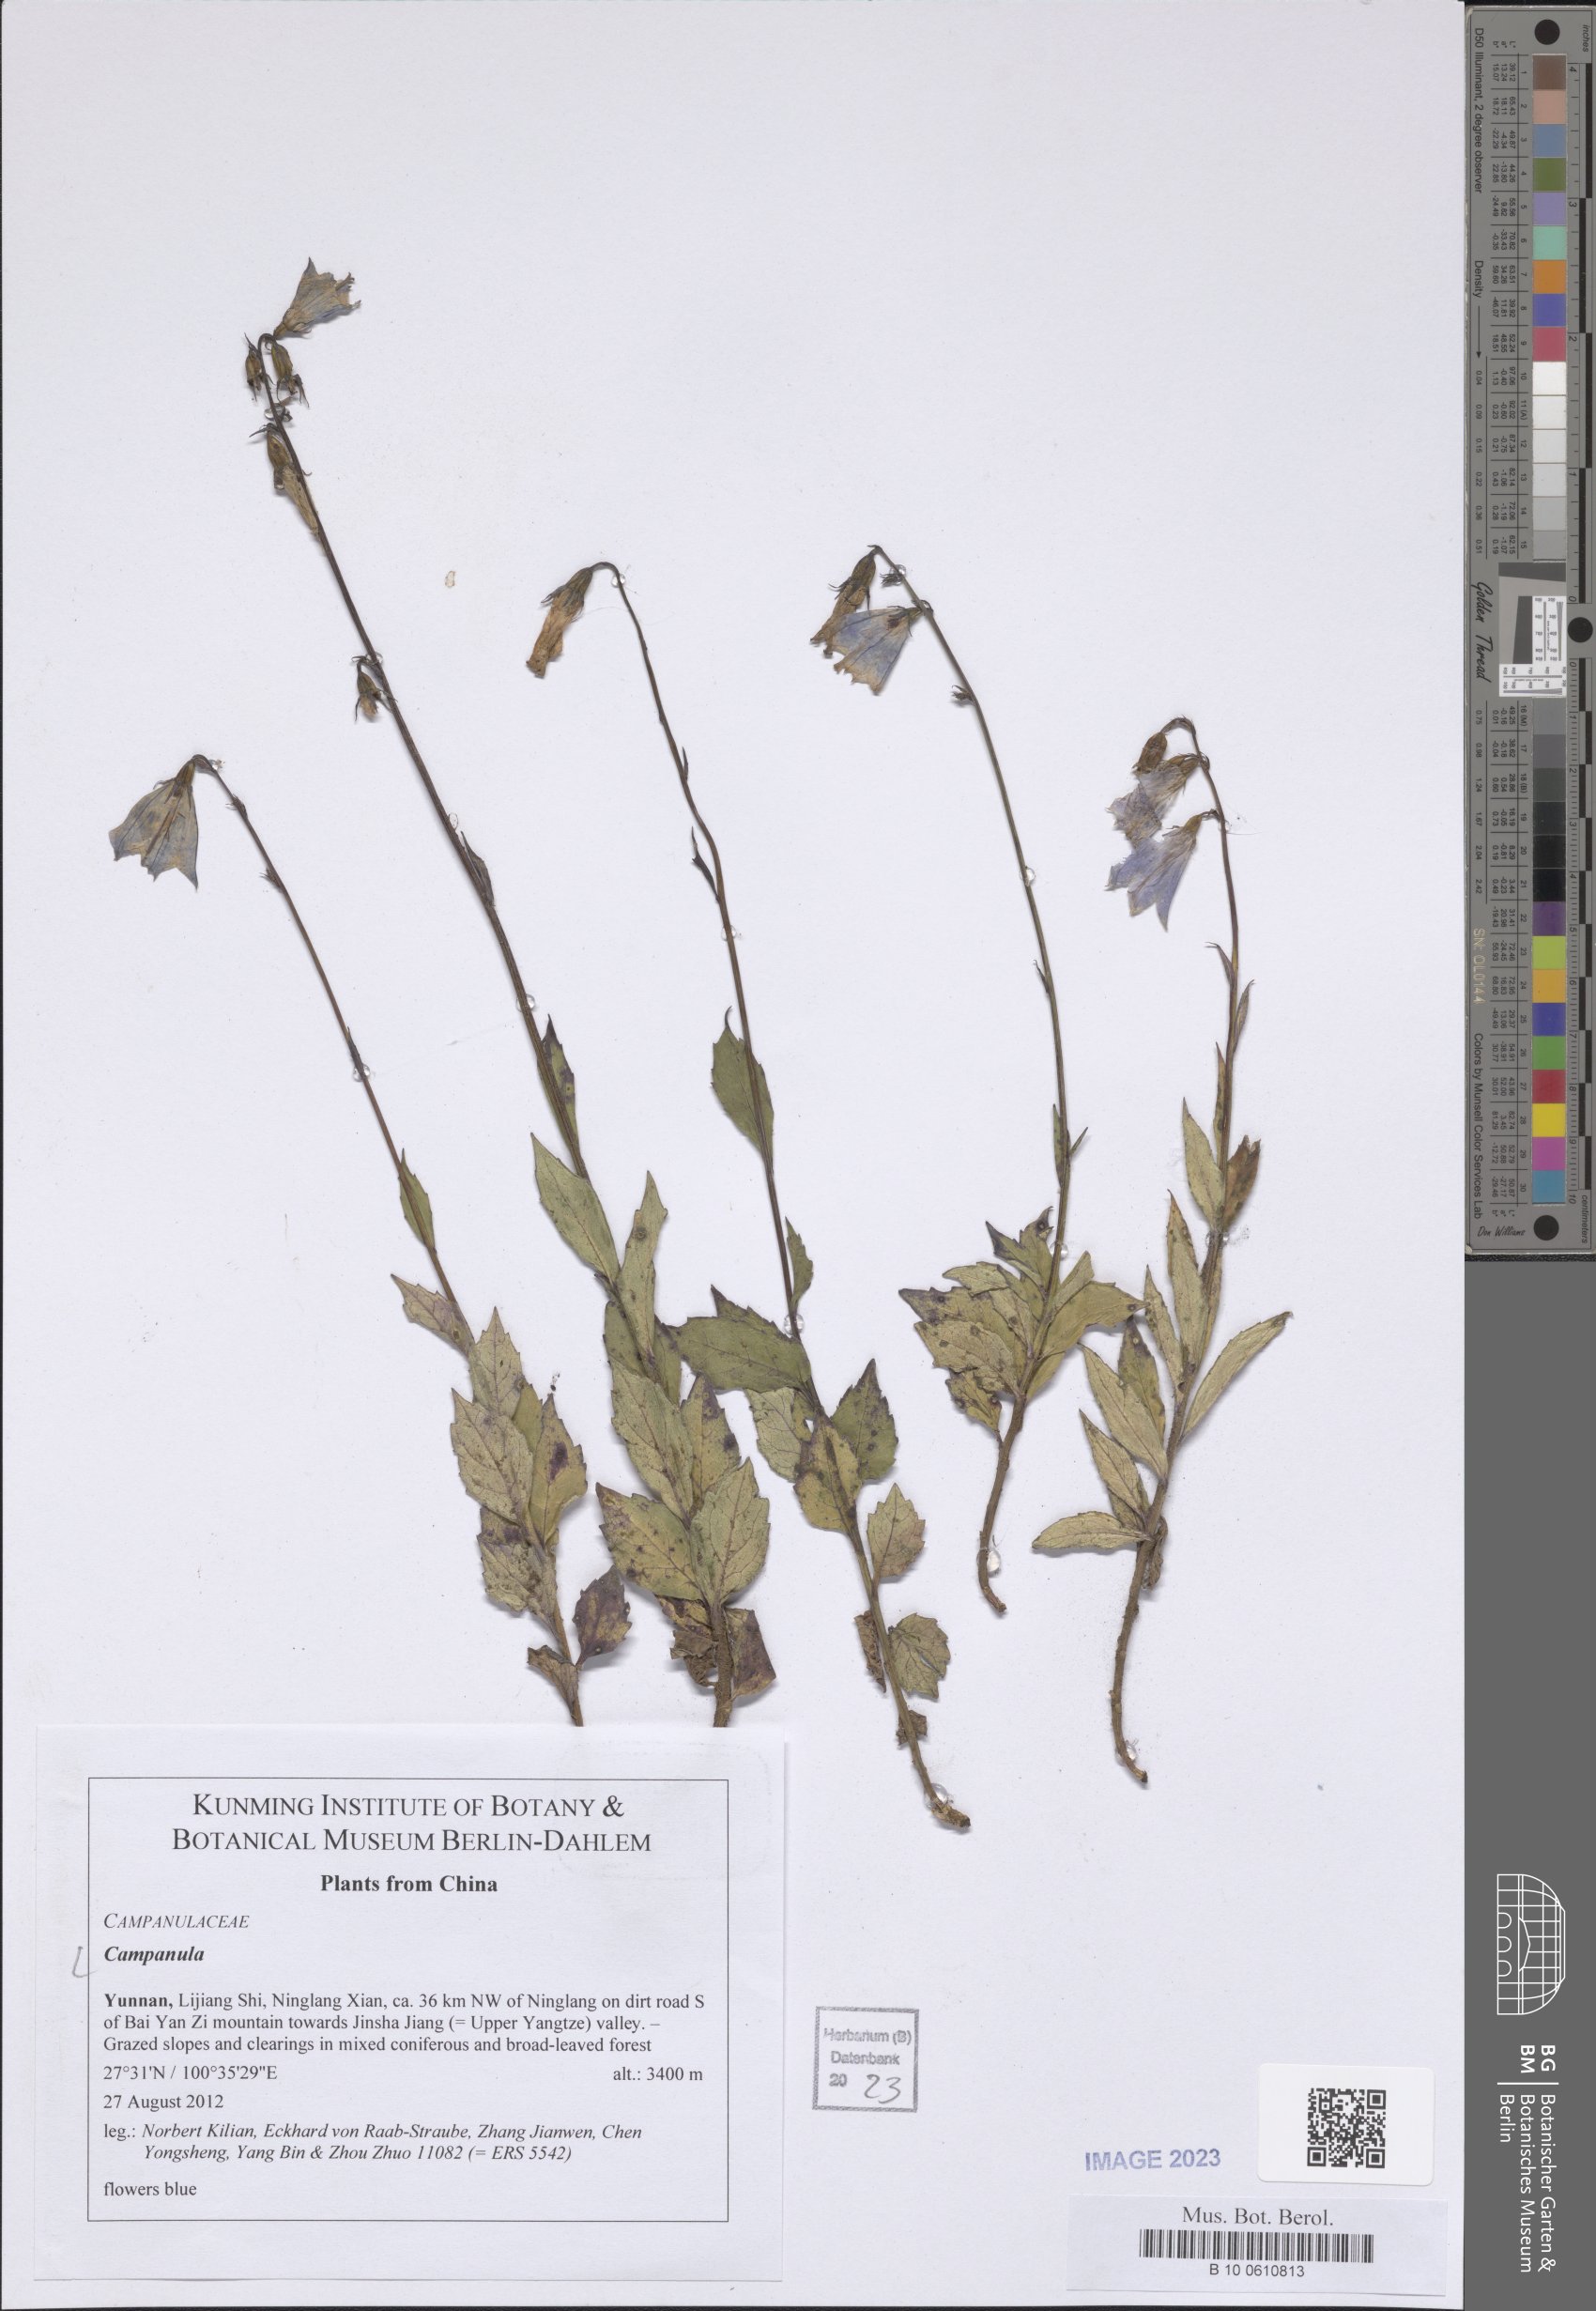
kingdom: Plantae
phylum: Tracheophyta
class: Magnoliopsida
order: Asterales
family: Campanulaceae
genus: Campanula
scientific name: Campanula
